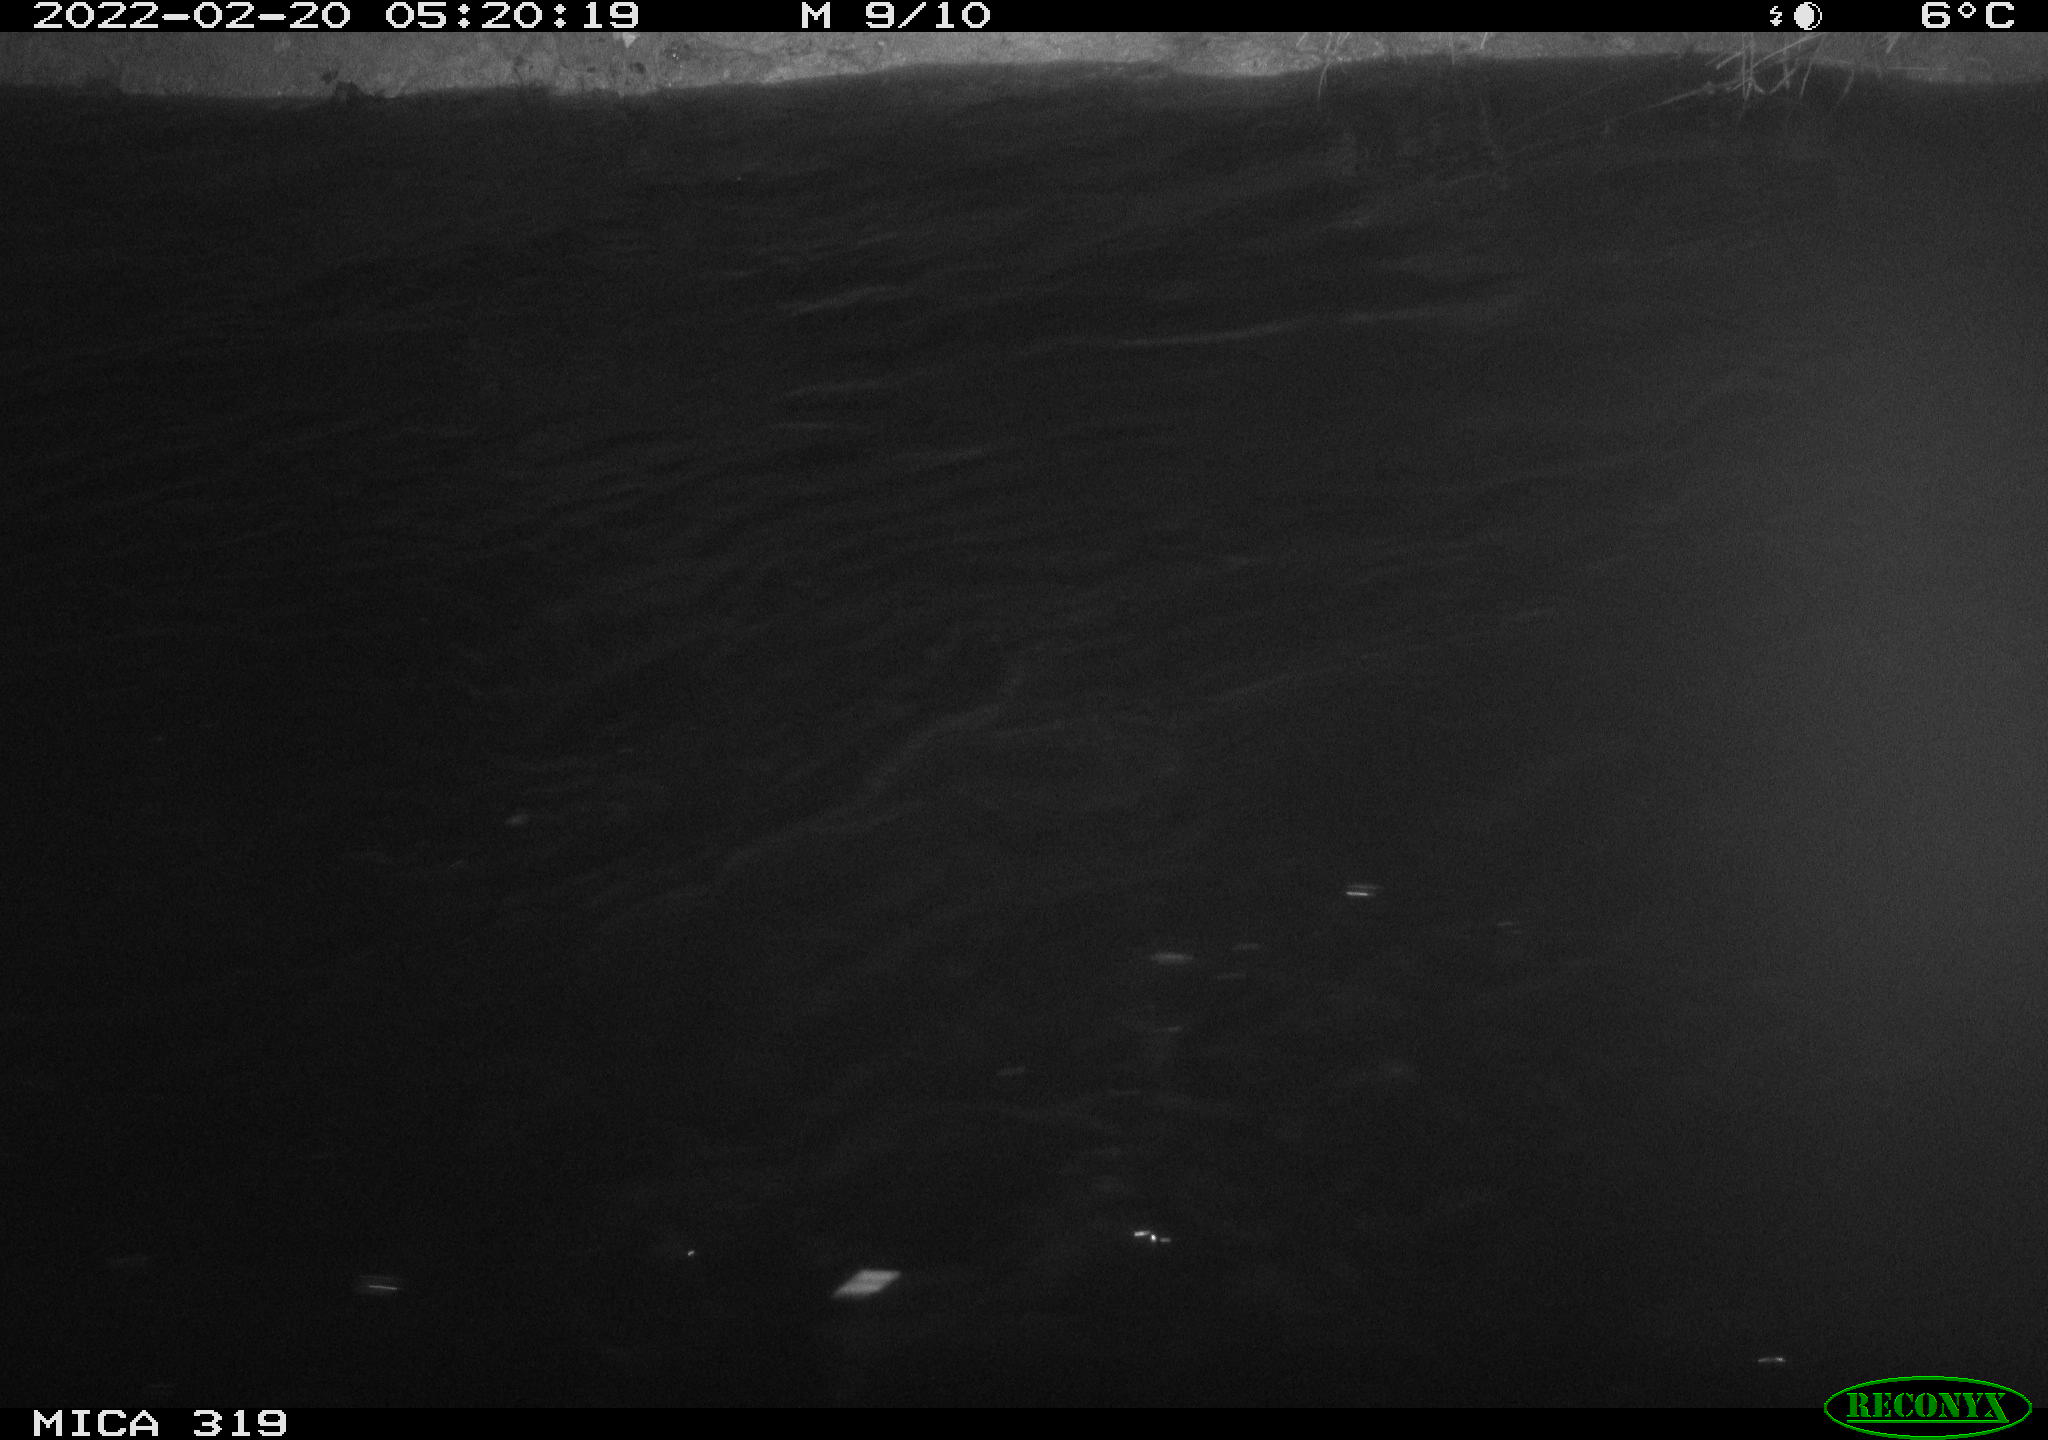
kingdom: Animalia
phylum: Chordata
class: Aves
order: Anseriformes
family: Anatidae
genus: Anas
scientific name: Anas platyrhynchos
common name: Mallard
